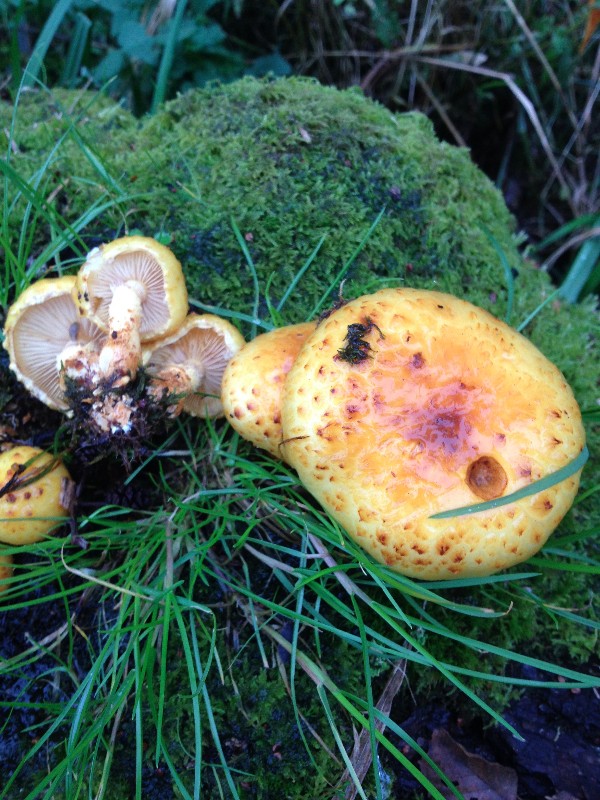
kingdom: Fungi
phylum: Basidiomycota
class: Agaricomycetes
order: Agaricales
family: Strophariaceae
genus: Pholiota
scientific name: Pholiota adiposa
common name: højtsiddende skælhat
